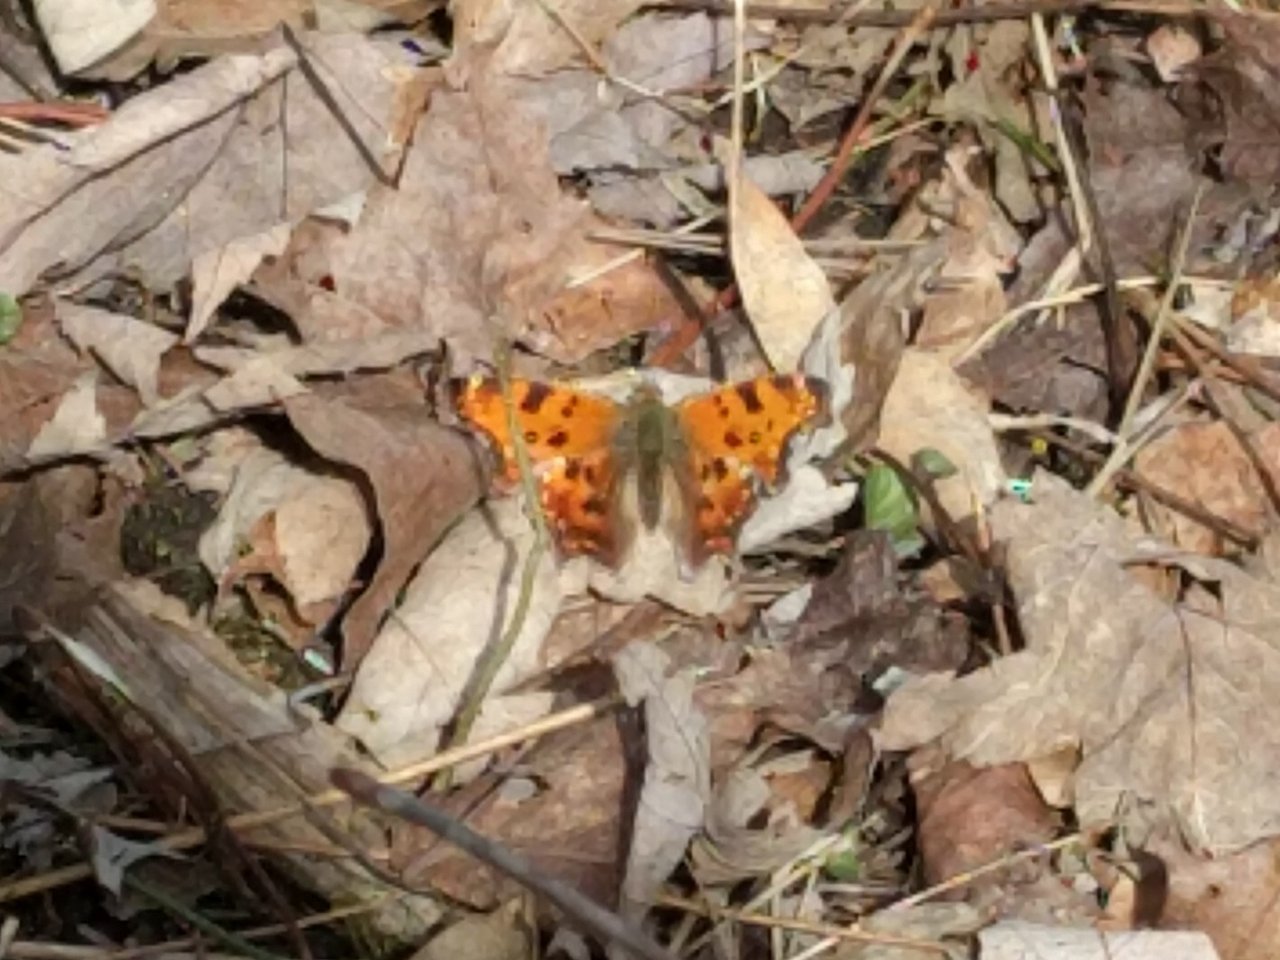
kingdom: Animalia
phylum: Arthropoda
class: Insecta
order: Lepidoptera
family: Nymphalidae
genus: Polygonia
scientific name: Polygonia comma
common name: Eastern Comma
